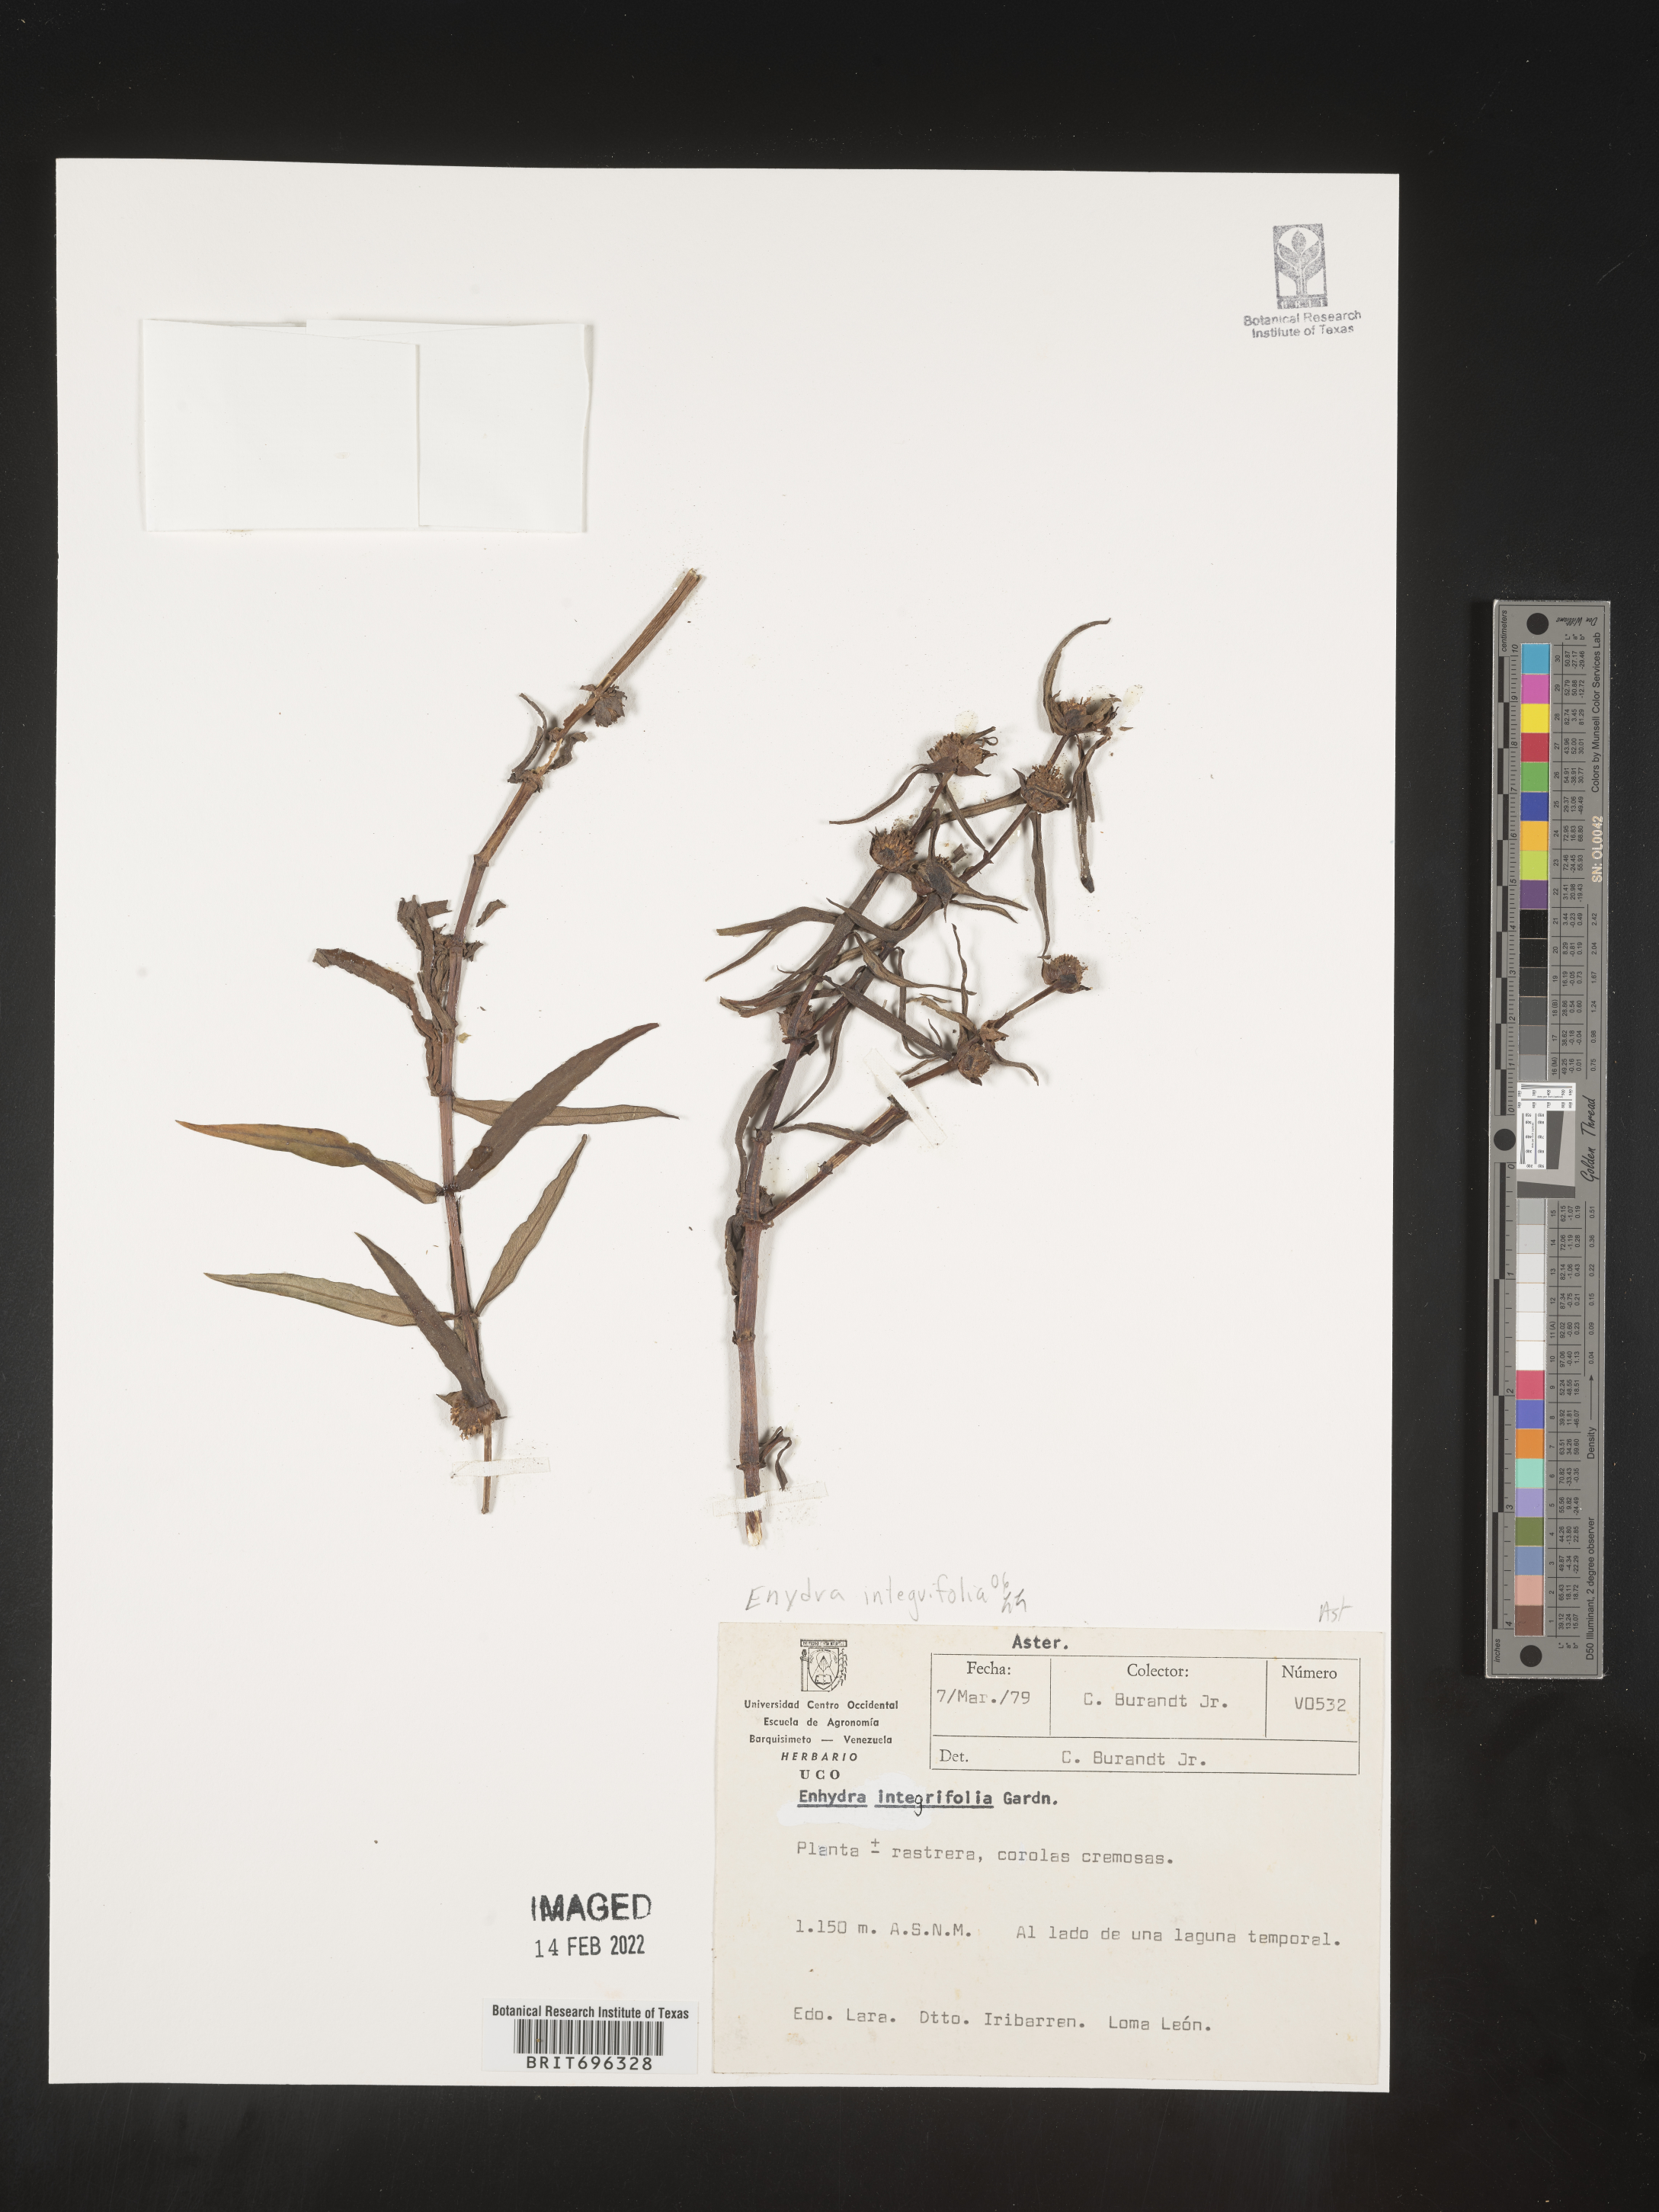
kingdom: Plantae
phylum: Tracheophyta
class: Magnoliopsida
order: Asterales
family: Asteraceae
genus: Enydra
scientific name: Enydra radicans
